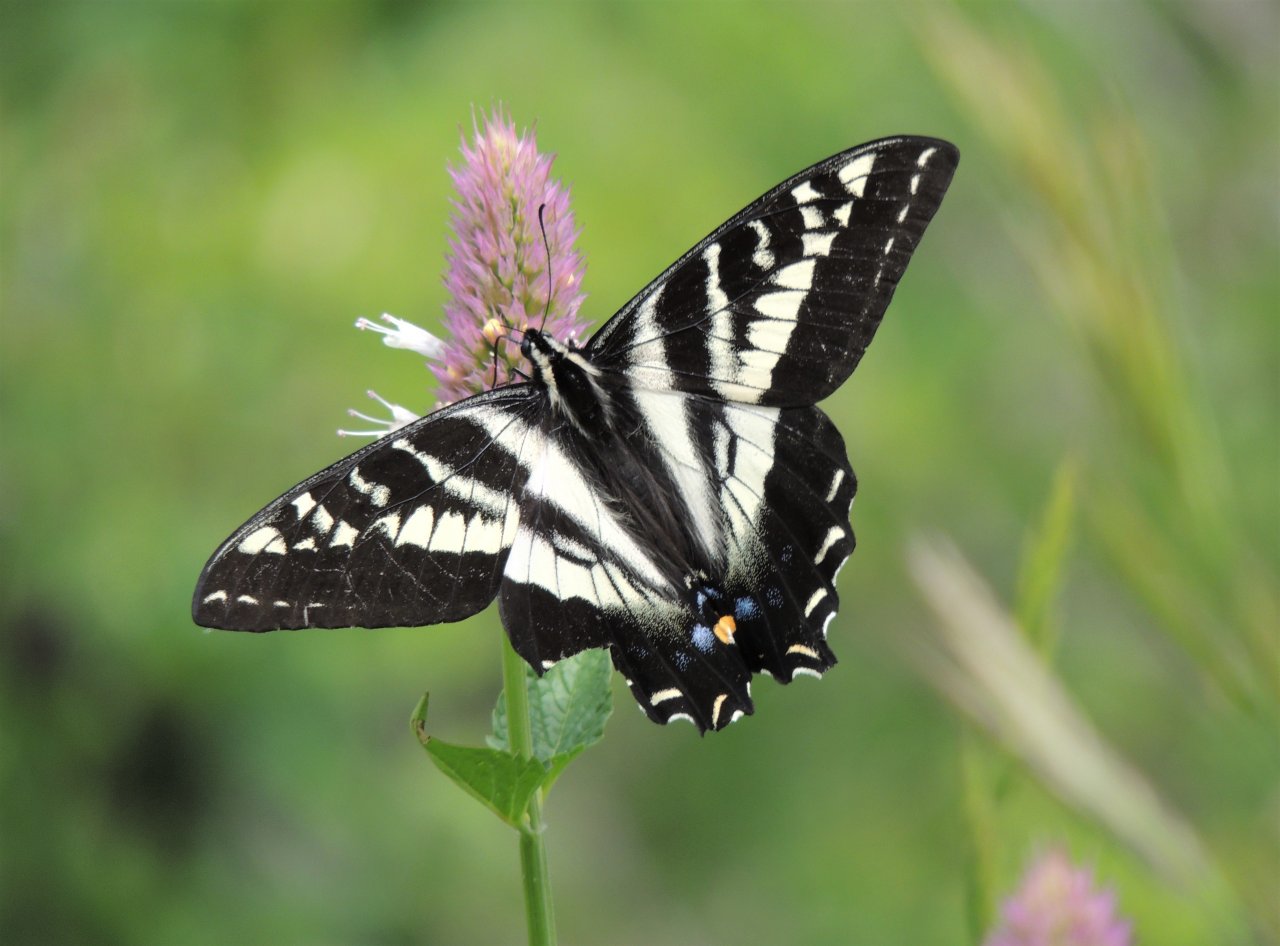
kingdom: Animalia
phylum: Arthropoda
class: Insecta
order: Lepidoptera
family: Papilionidae
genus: Pterourus
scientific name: Pterourus eurymedon
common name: Pale Swallowtail
